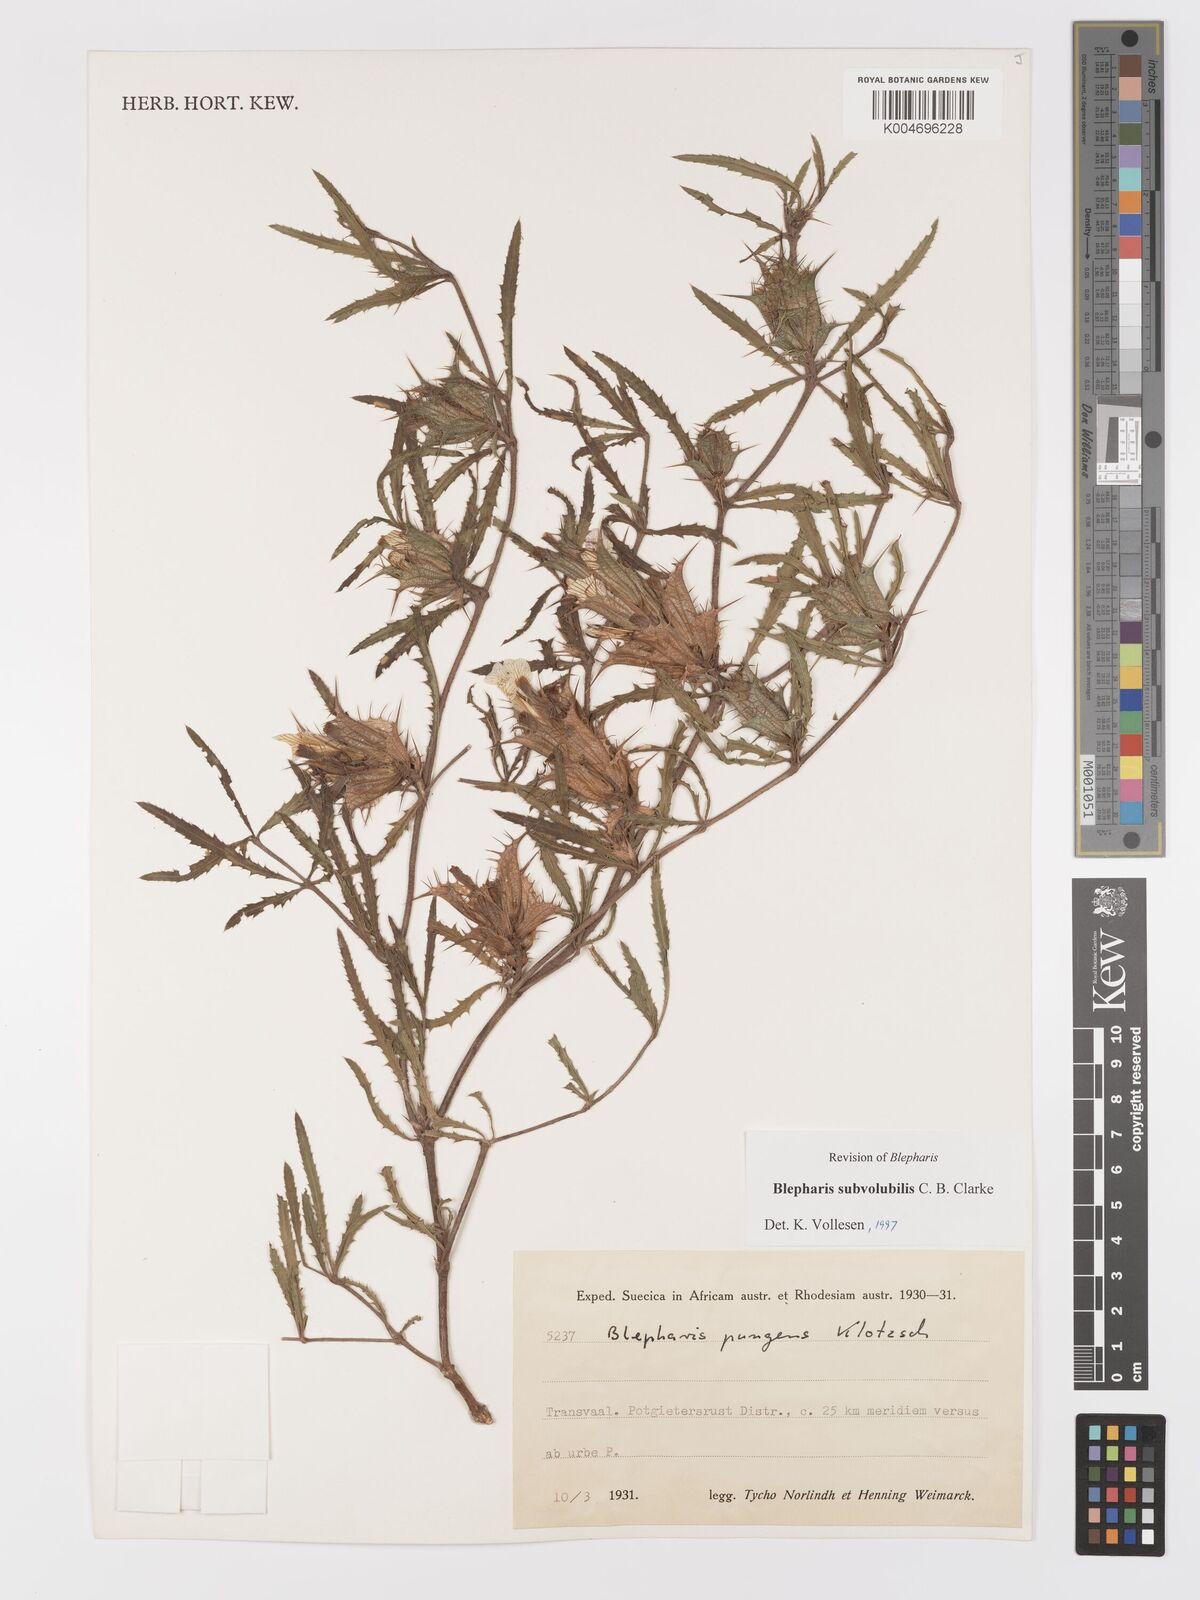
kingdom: Plantae
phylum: Tracheophyta
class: Magnoliopsida
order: Lamiales
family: Acanthaceae
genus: Blepharis
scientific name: Blepharis subvolubilis
